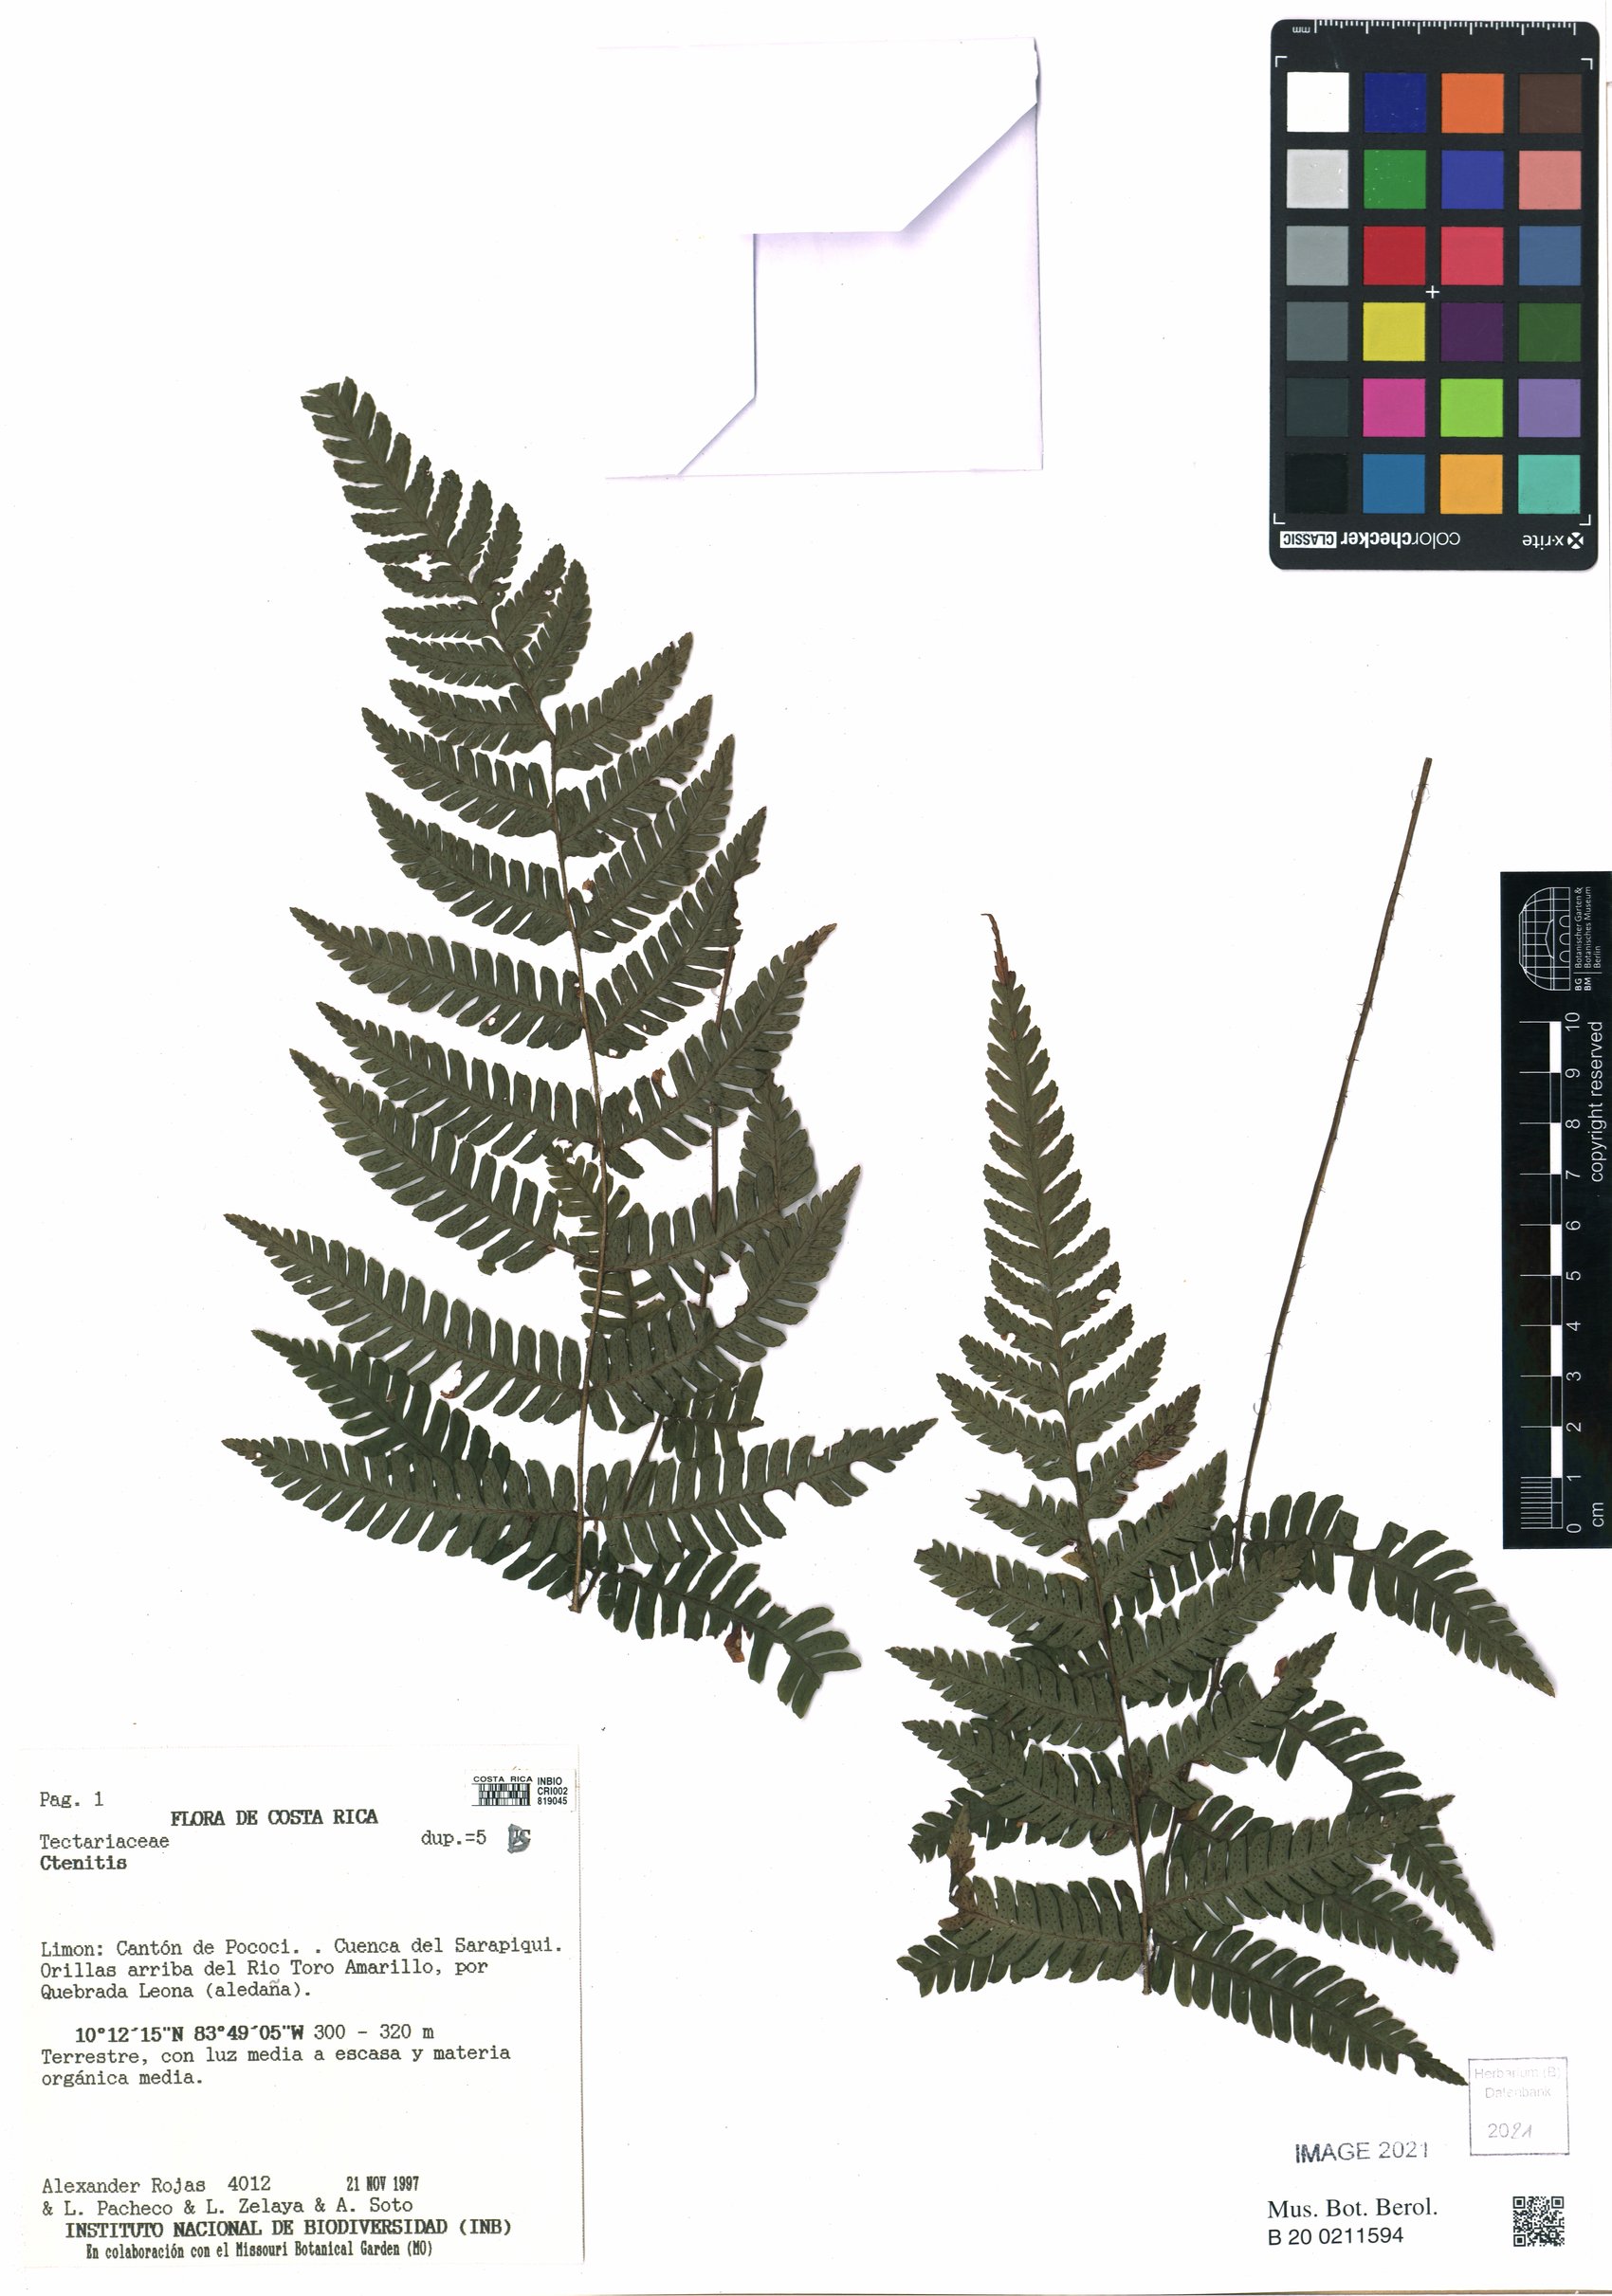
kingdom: Plantae
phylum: Tracheophyta
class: Polypodiopsida
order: Polypodiales
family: Dryopteridaceae
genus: Ctenitis
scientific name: Ctenitis
